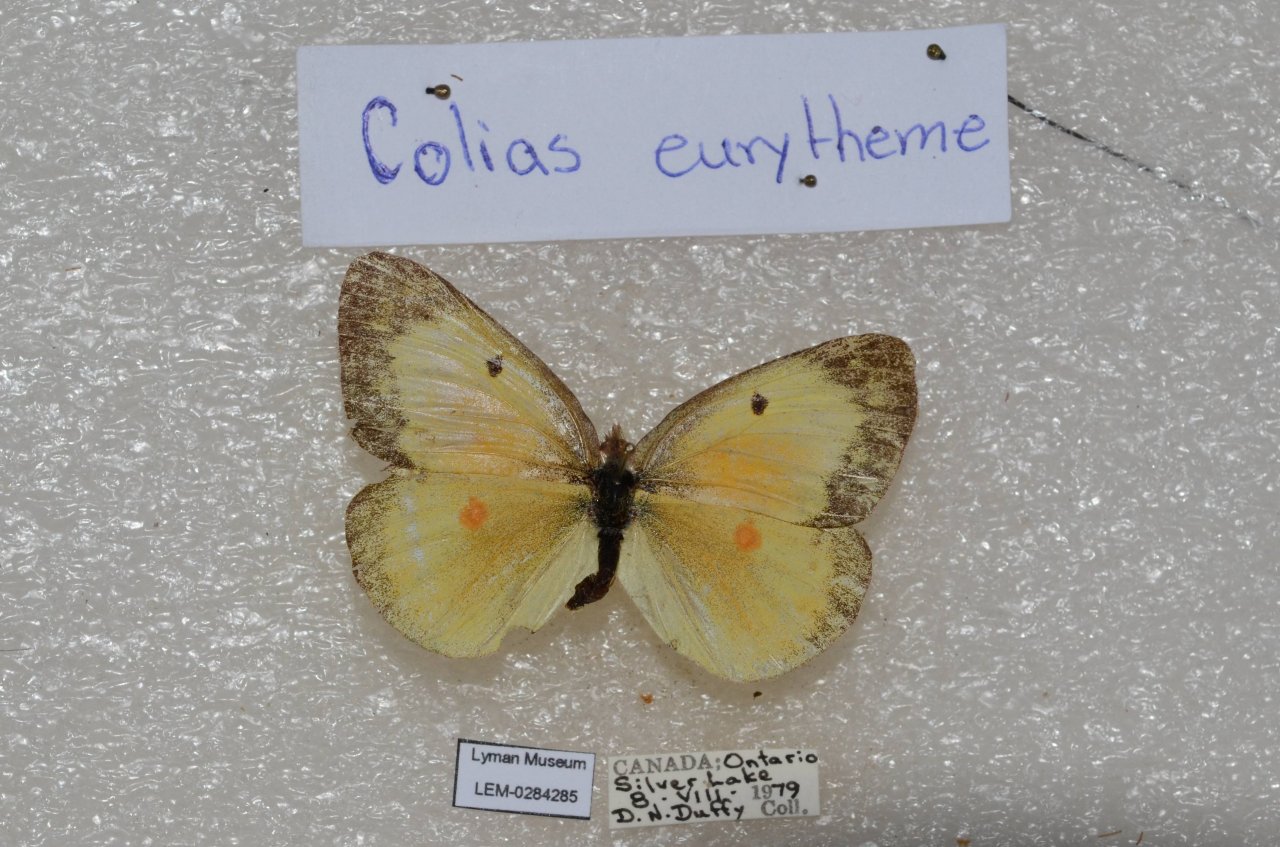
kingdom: Animalia
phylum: Arthropoda
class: Insecta
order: Lepidoptera
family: Pieridae
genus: Colias
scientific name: Colias eurytheme
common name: Orange Sulphur
